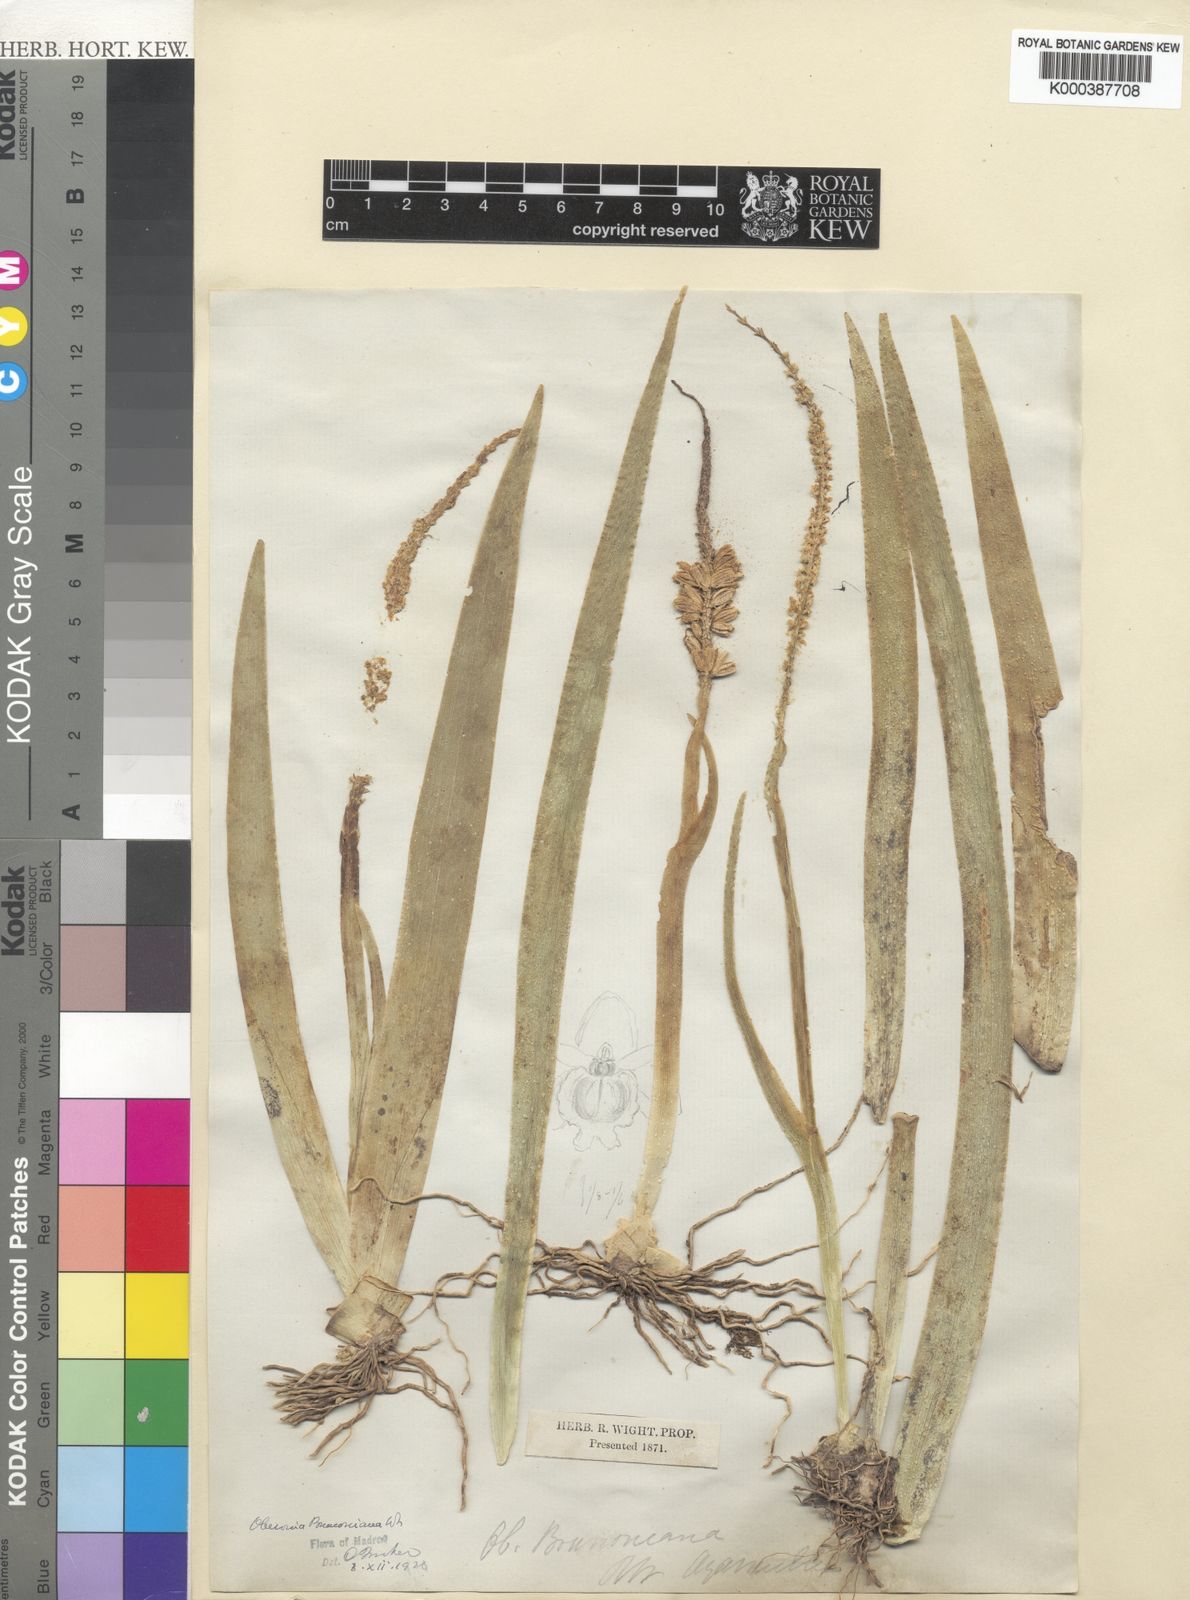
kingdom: Plantae
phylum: Tracheophyta
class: Liliopsida
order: Asparagales
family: Orchidaceae
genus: Oberonia
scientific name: Oberonia brunoniana
